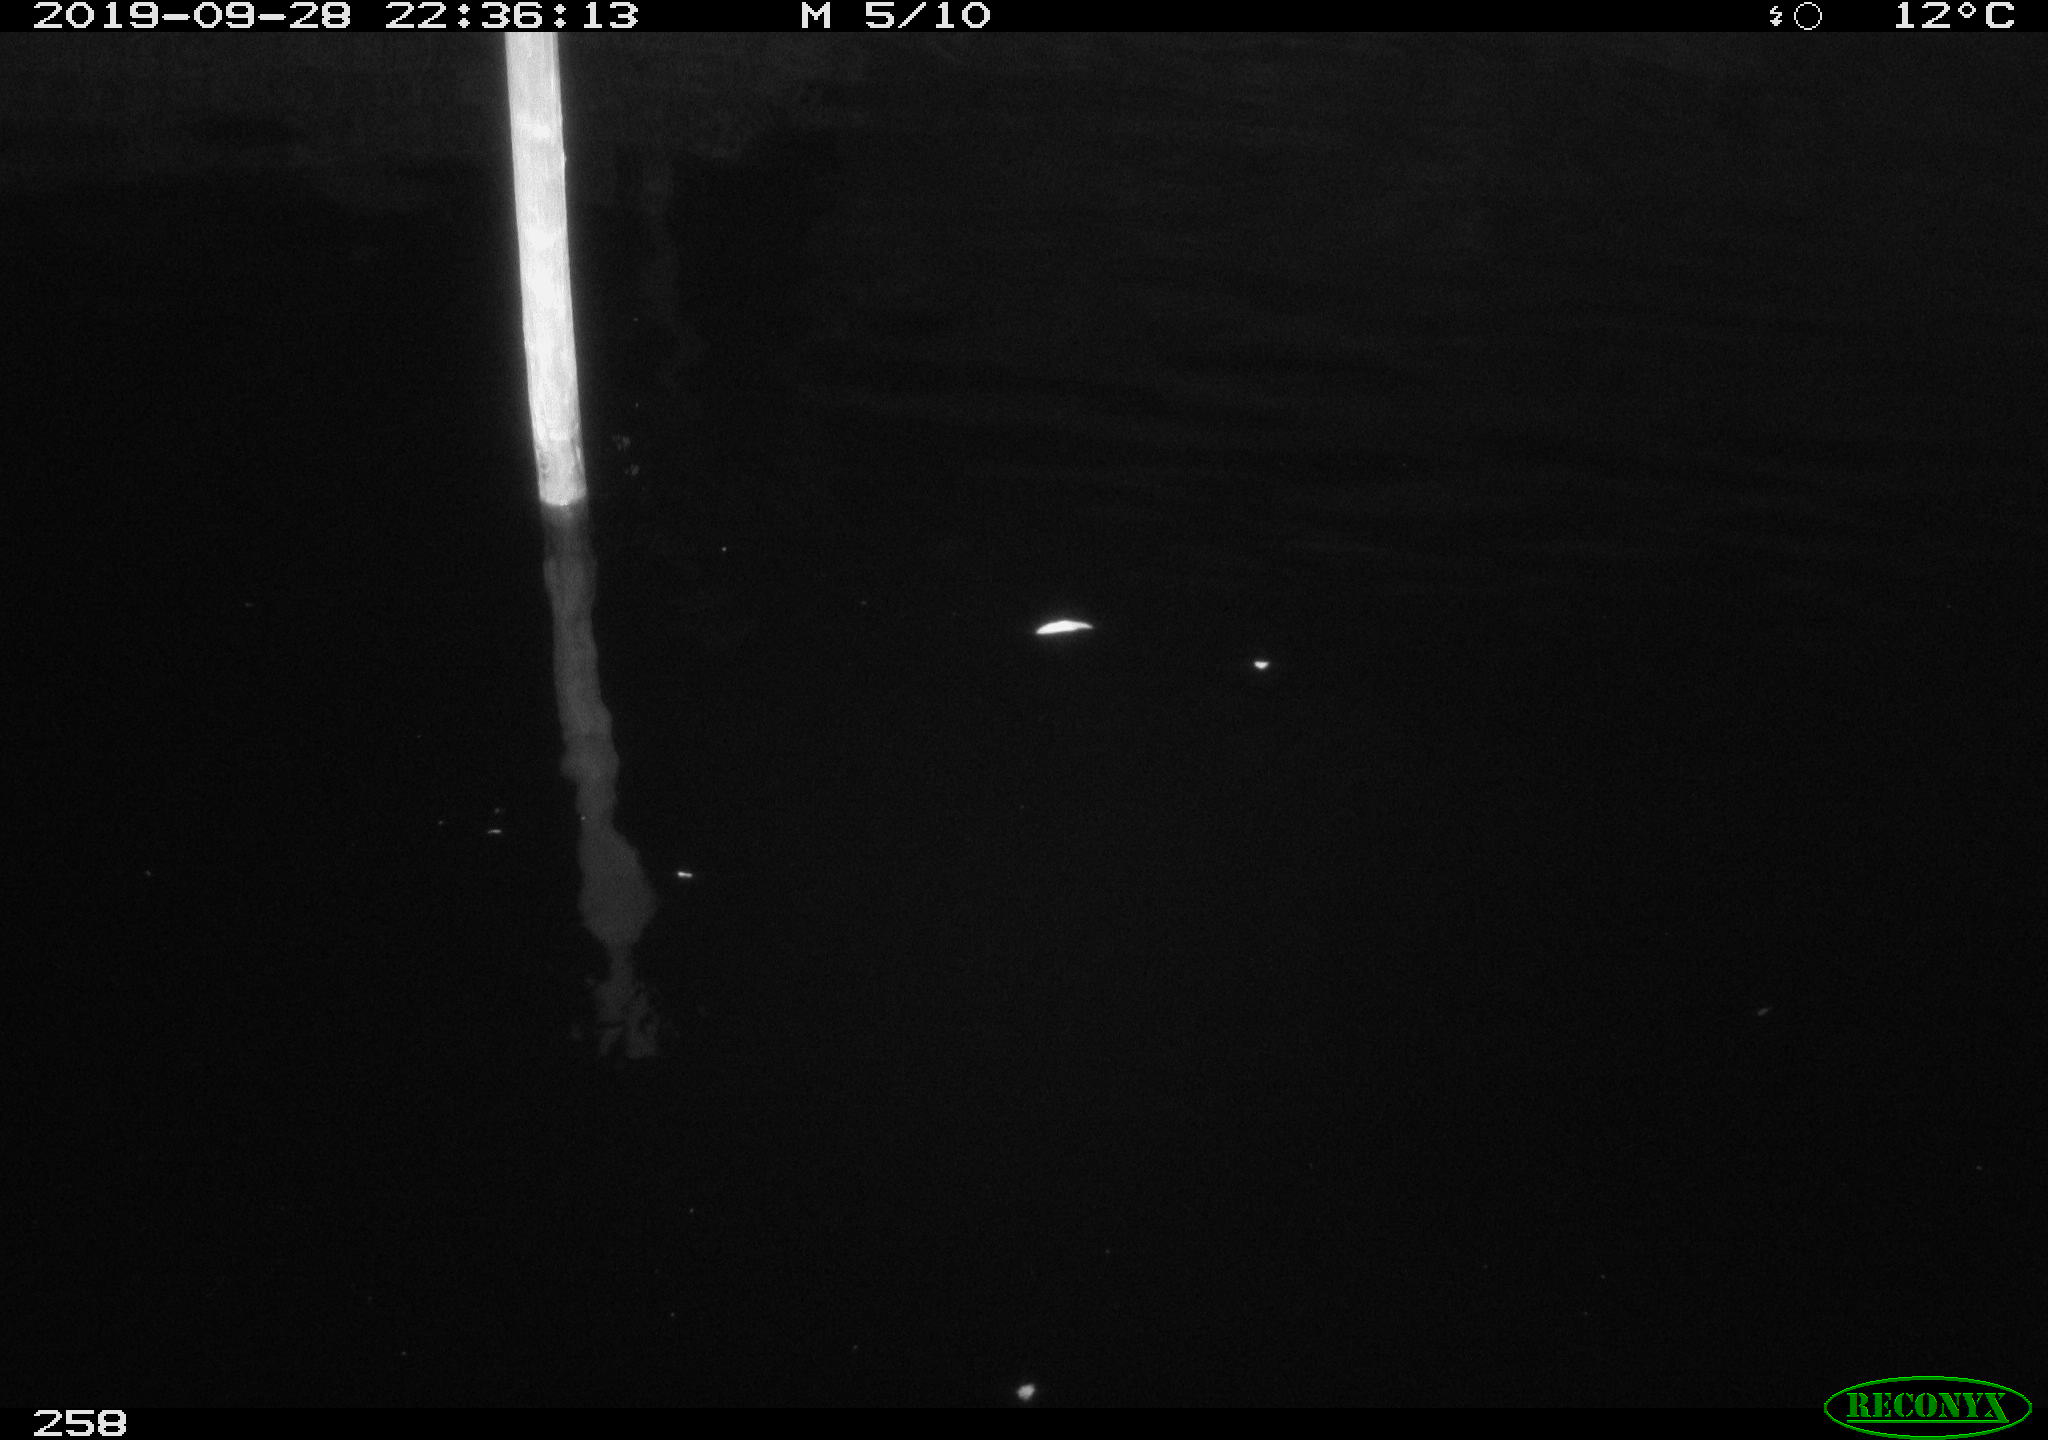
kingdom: Animalia
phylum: Chordata
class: Aves
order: Anseriformes
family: Anatidae
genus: Anas
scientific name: Anas platyrhynchos
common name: Mallard
